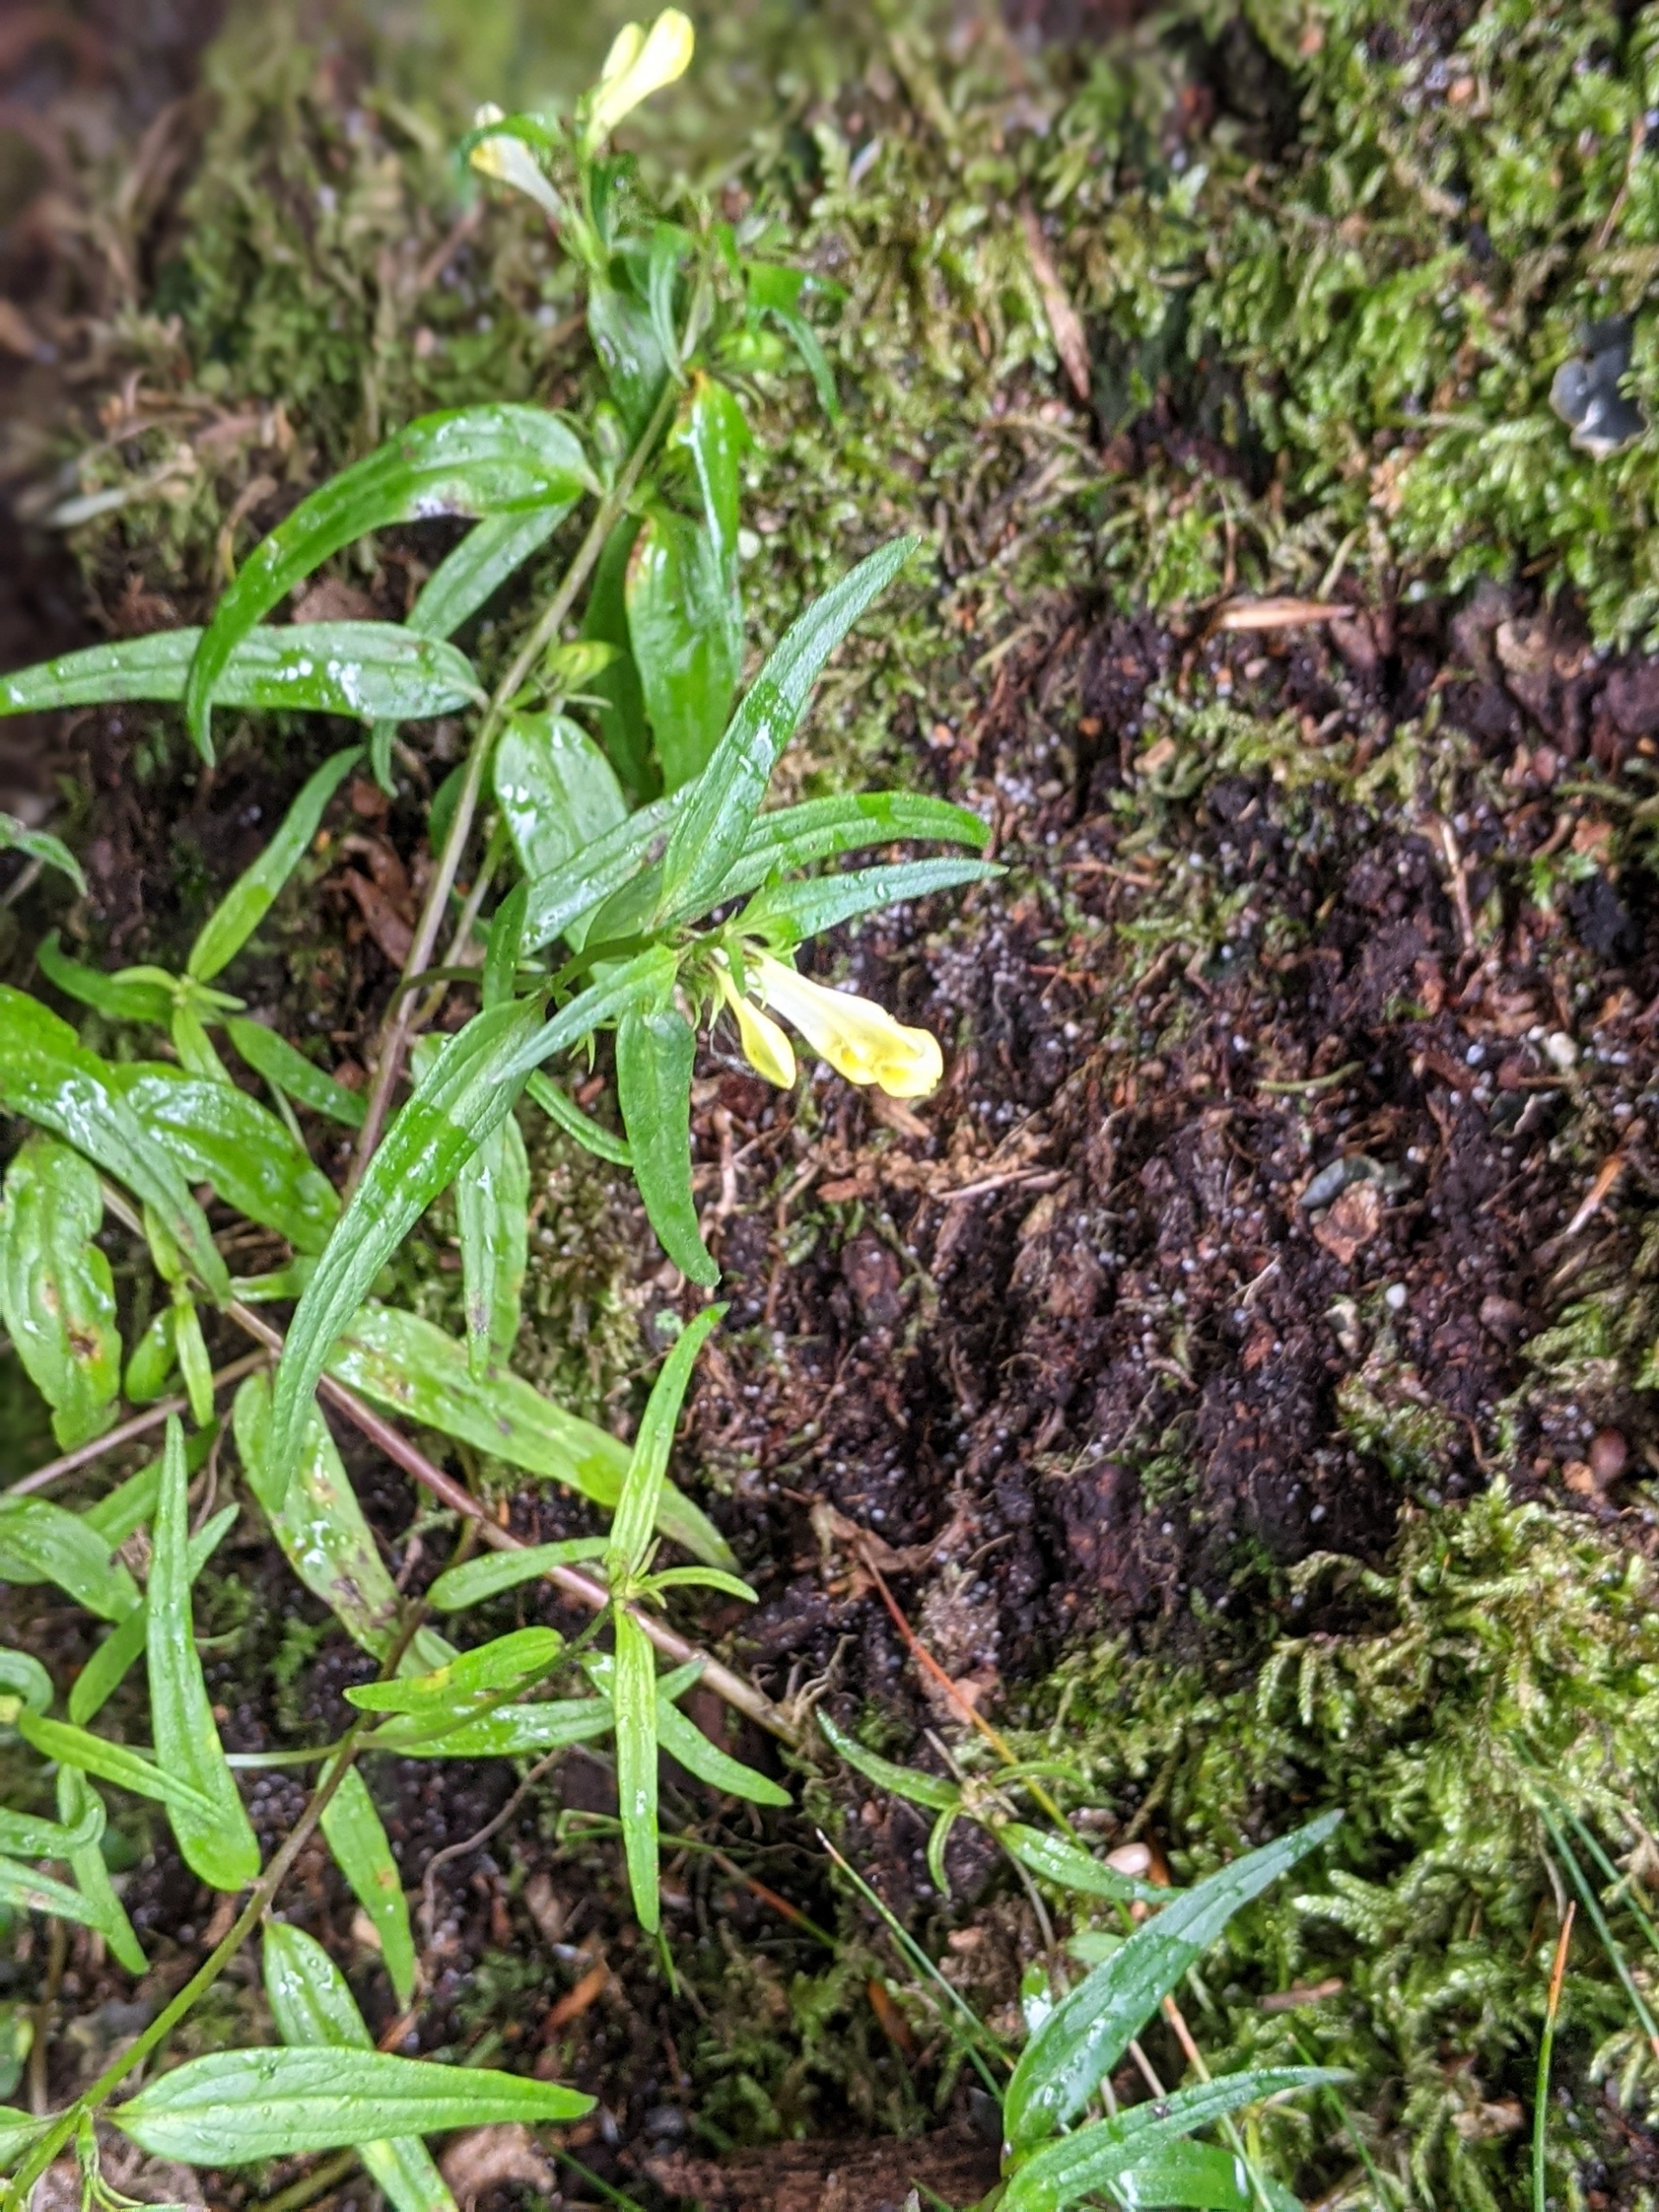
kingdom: Plantae
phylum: Tracheophyta
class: Magnoliopsida
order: Lamiales
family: Orobanchaceae
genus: Melampyrum
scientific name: Melampyrum pratense
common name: Almindelig kohvede
